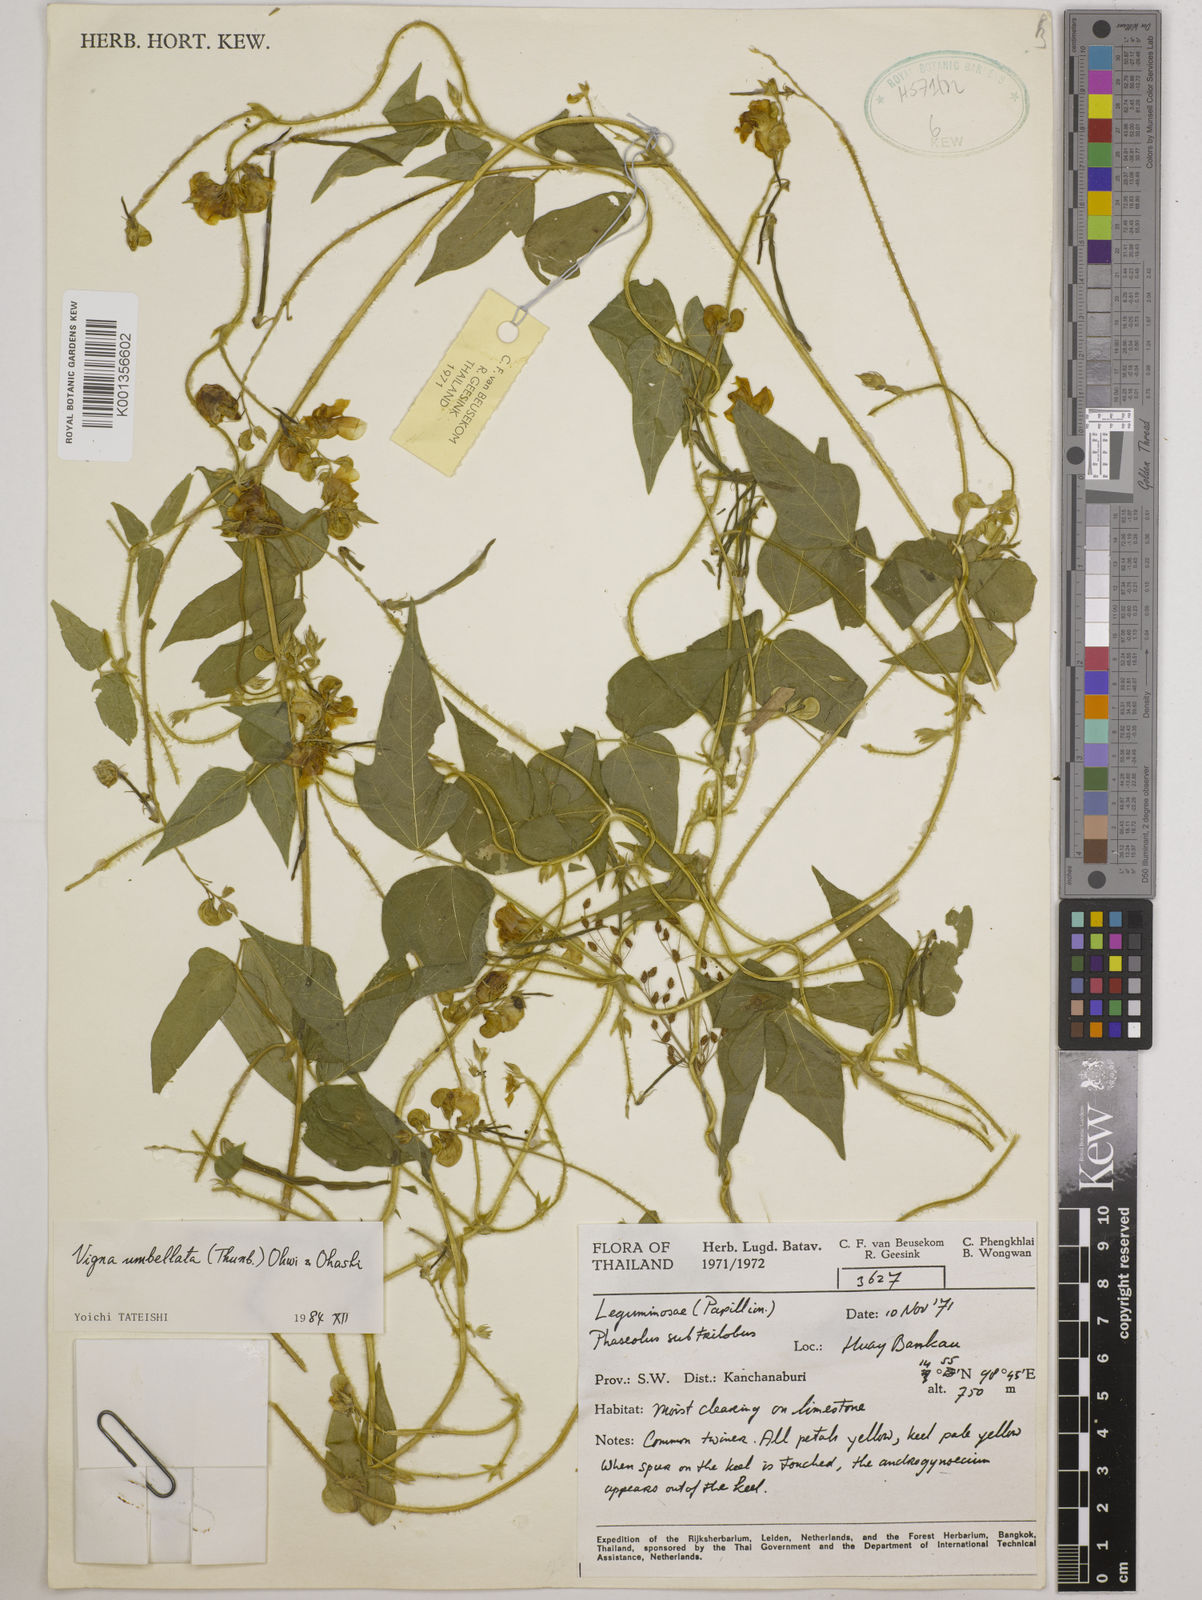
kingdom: Plantae
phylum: Tracheophyta
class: Magnoliopsida
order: Fabales
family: Fabaceae
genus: Vigna
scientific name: Vigna umbellata
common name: Oriental-bean
